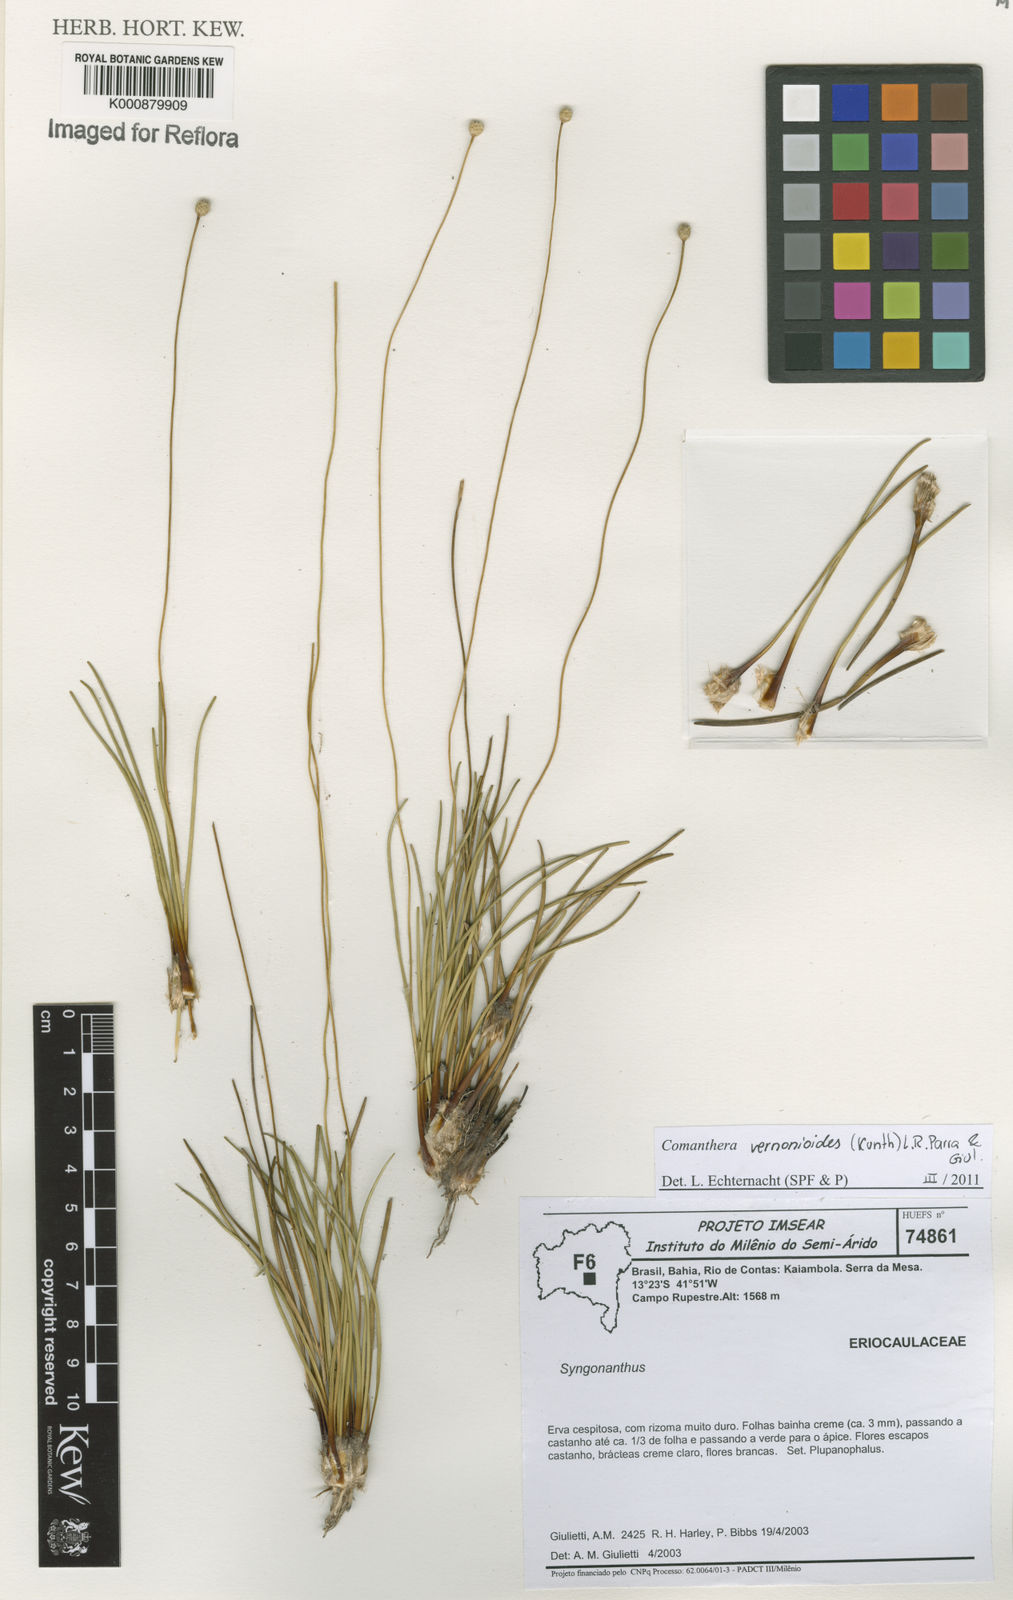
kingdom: Plantae
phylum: Tracheophyta
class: Liliopsida
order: Poales
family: Eriocaulaceae
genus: Comanthera
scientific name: Comanthera centauroides
